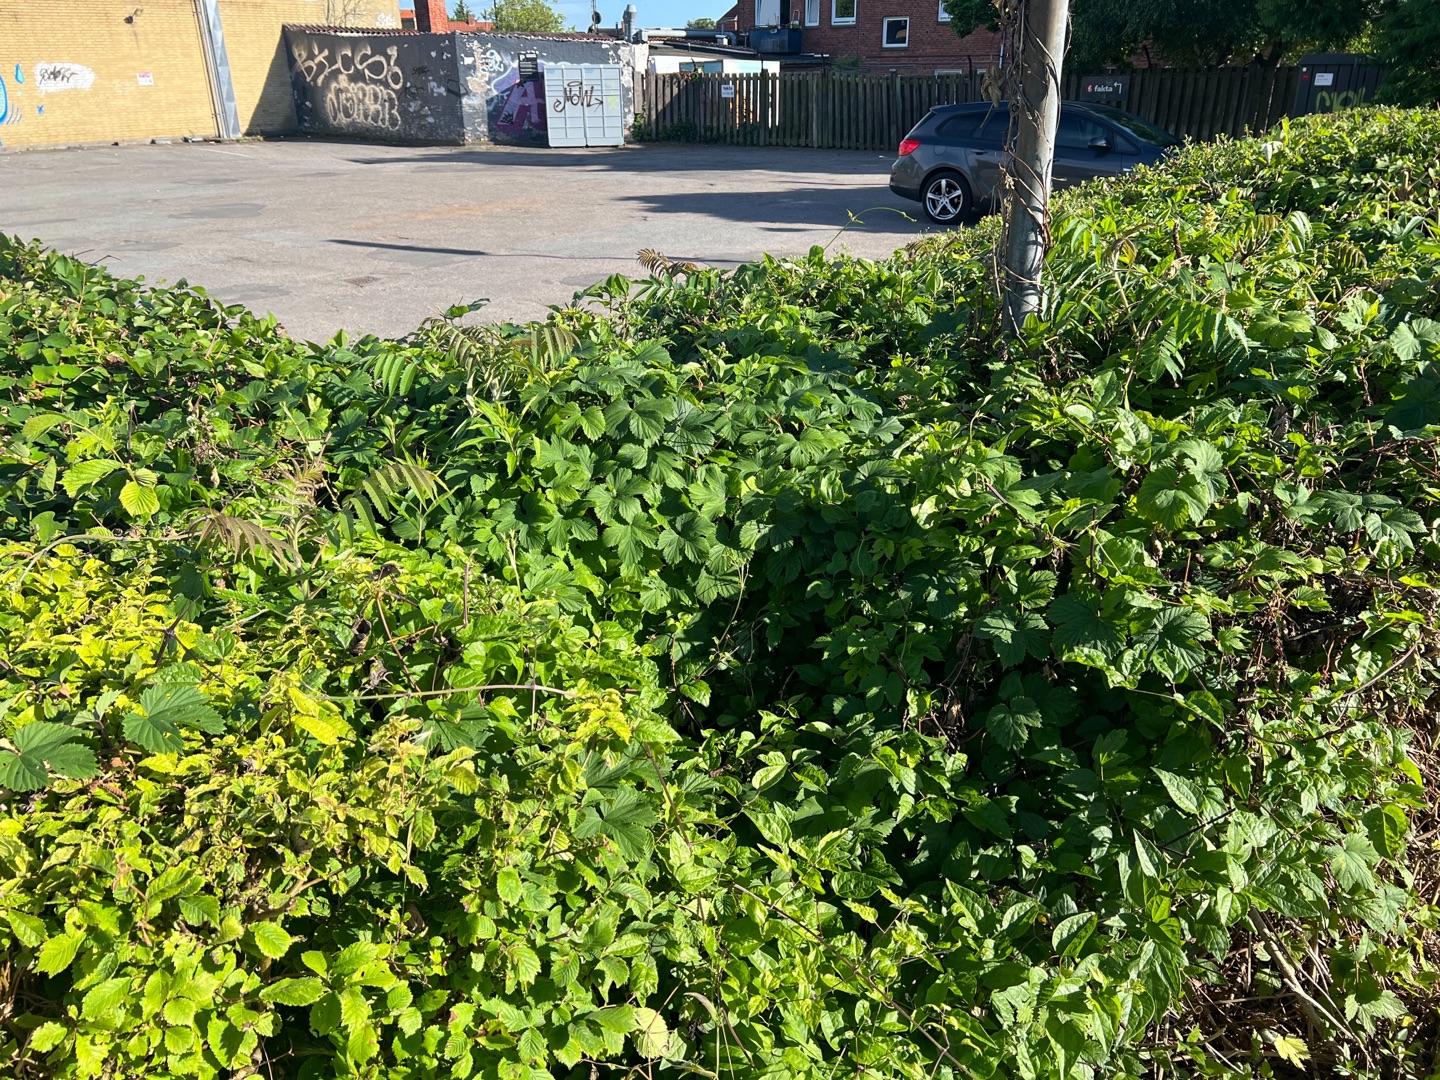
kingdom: Plantae
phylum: Tracheophyta
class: Magnoliopsida
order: Sapindales
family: Anacardiaceae
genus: Rhus
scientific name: Rhus typhina
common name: Hjortetaktræ
